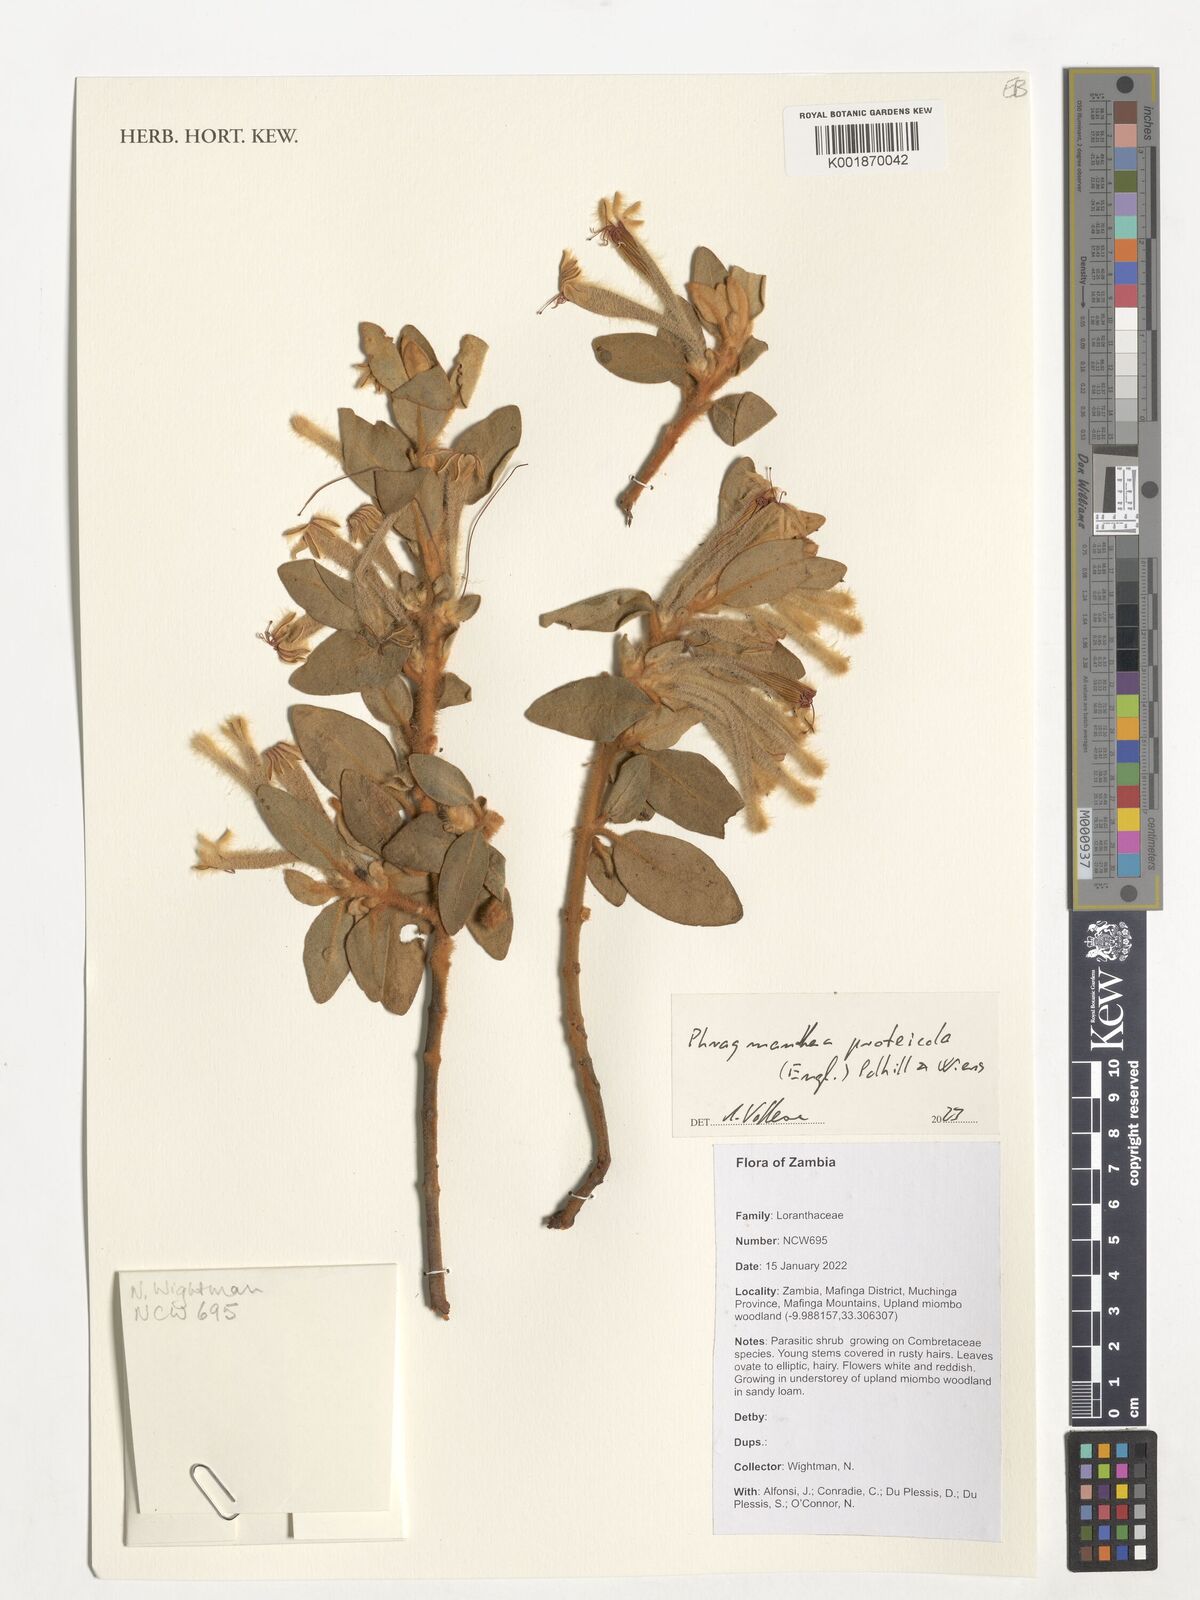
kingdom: Plantae
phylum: Tracheophyta
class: Magnoliopsida
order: Santalales
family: Loranthaceae
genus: Phragmanthera
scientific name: Phragmanthera proteicola
